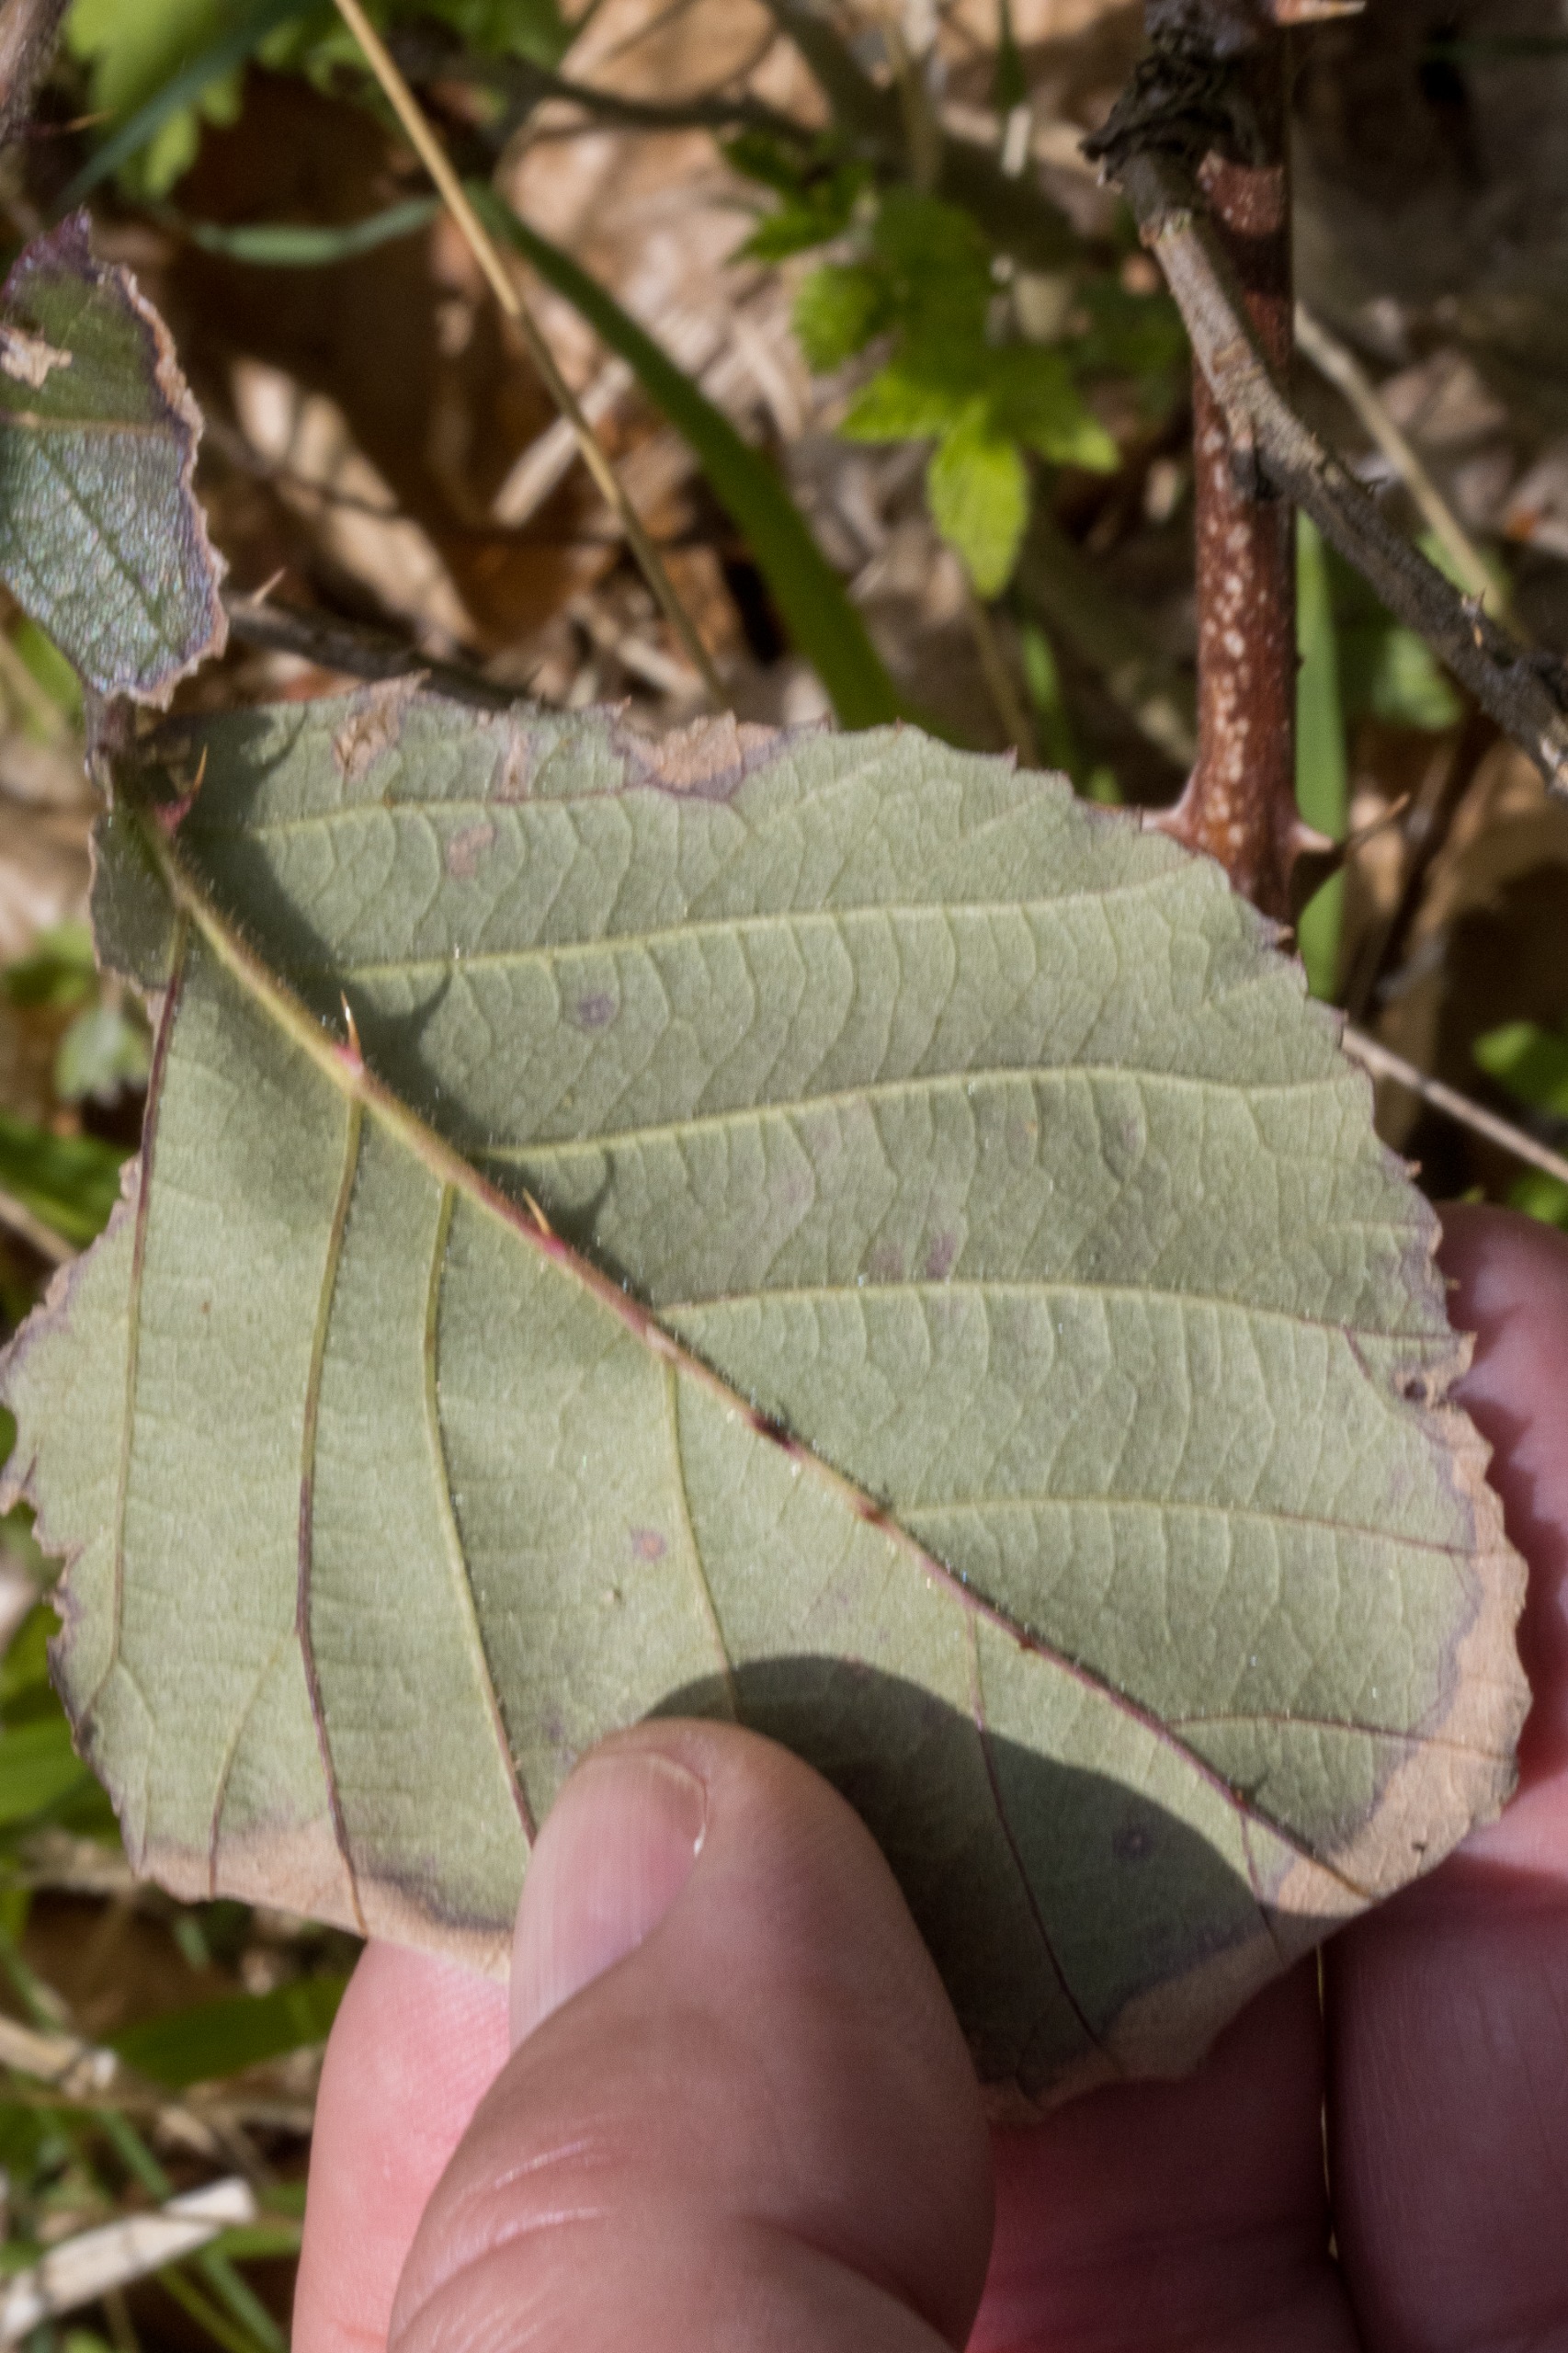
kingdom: Plantae
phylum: Tracheophyta
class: Magnoliopsida
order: Rosales
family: Rosaceae
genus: Rubus
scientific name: Rubus radula
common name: Rasperu brombær
